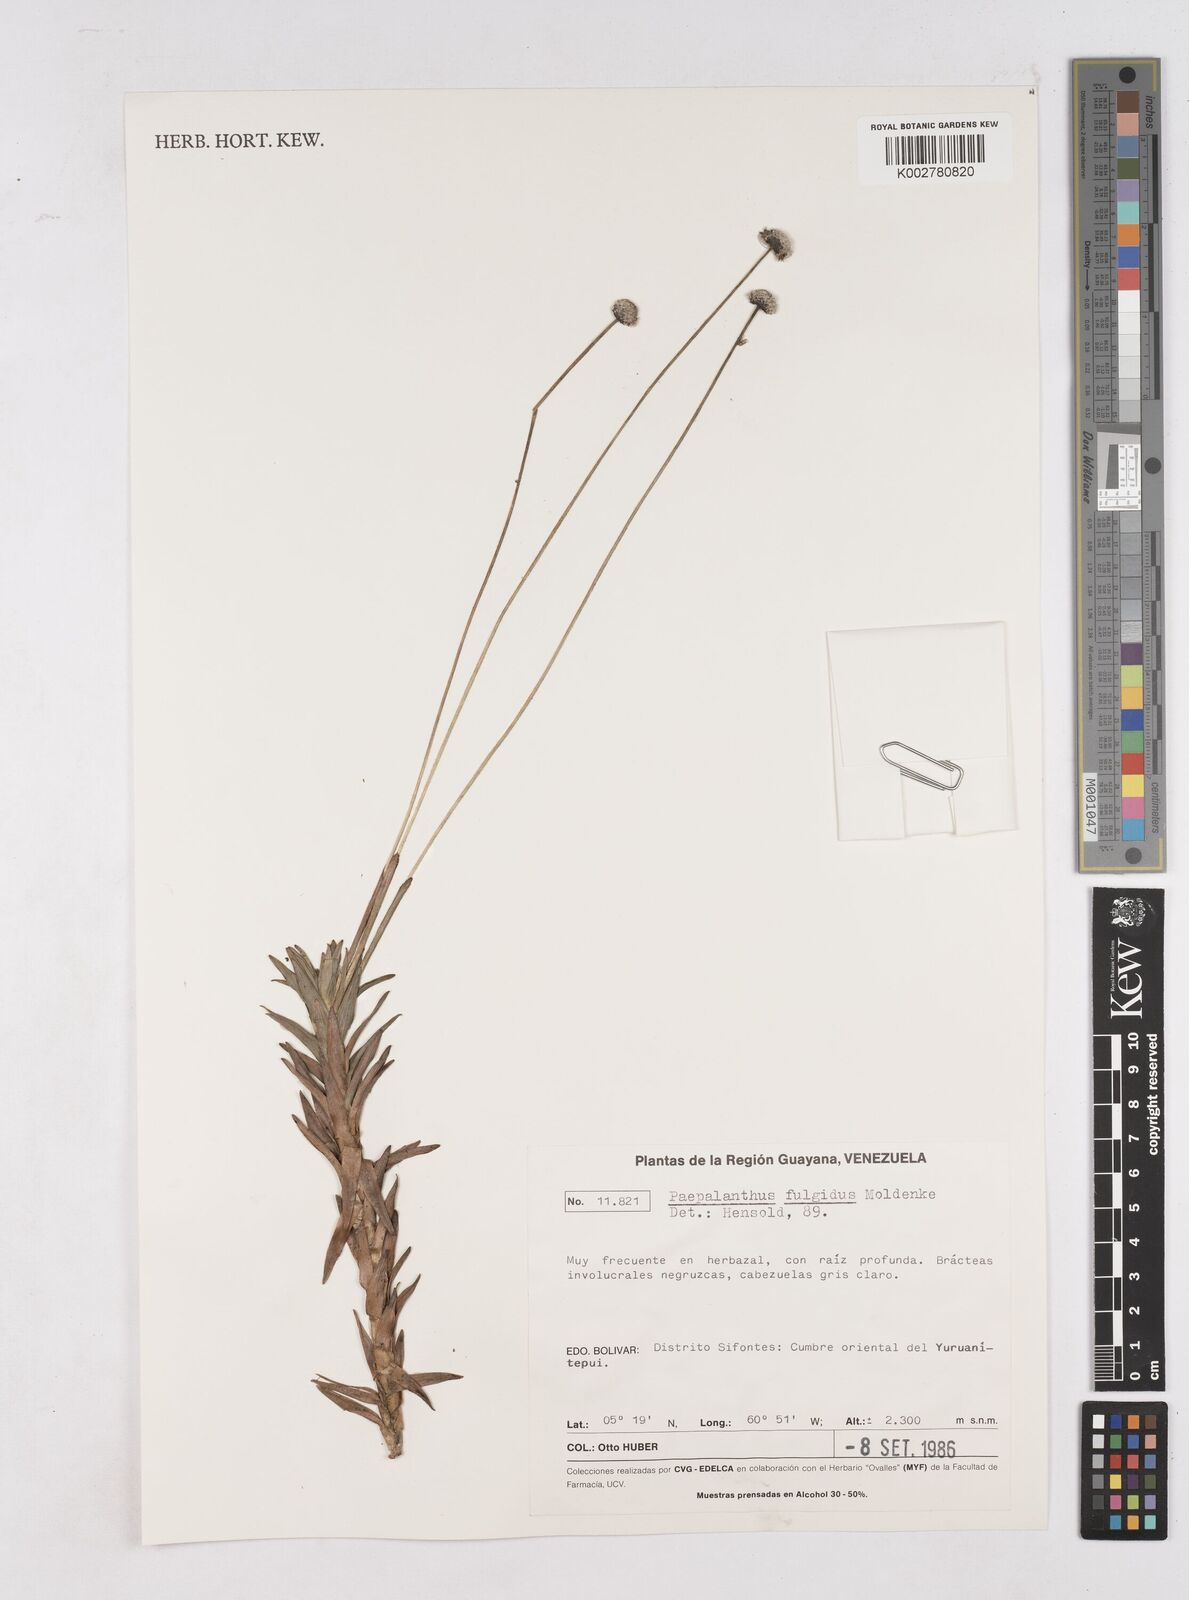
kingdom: Plantae
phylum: Tracheophyta
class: Liliopsida
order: Poales
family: Eriocaulaceae
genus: Paepalanthus
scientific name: Paepalanthus fulgidus
